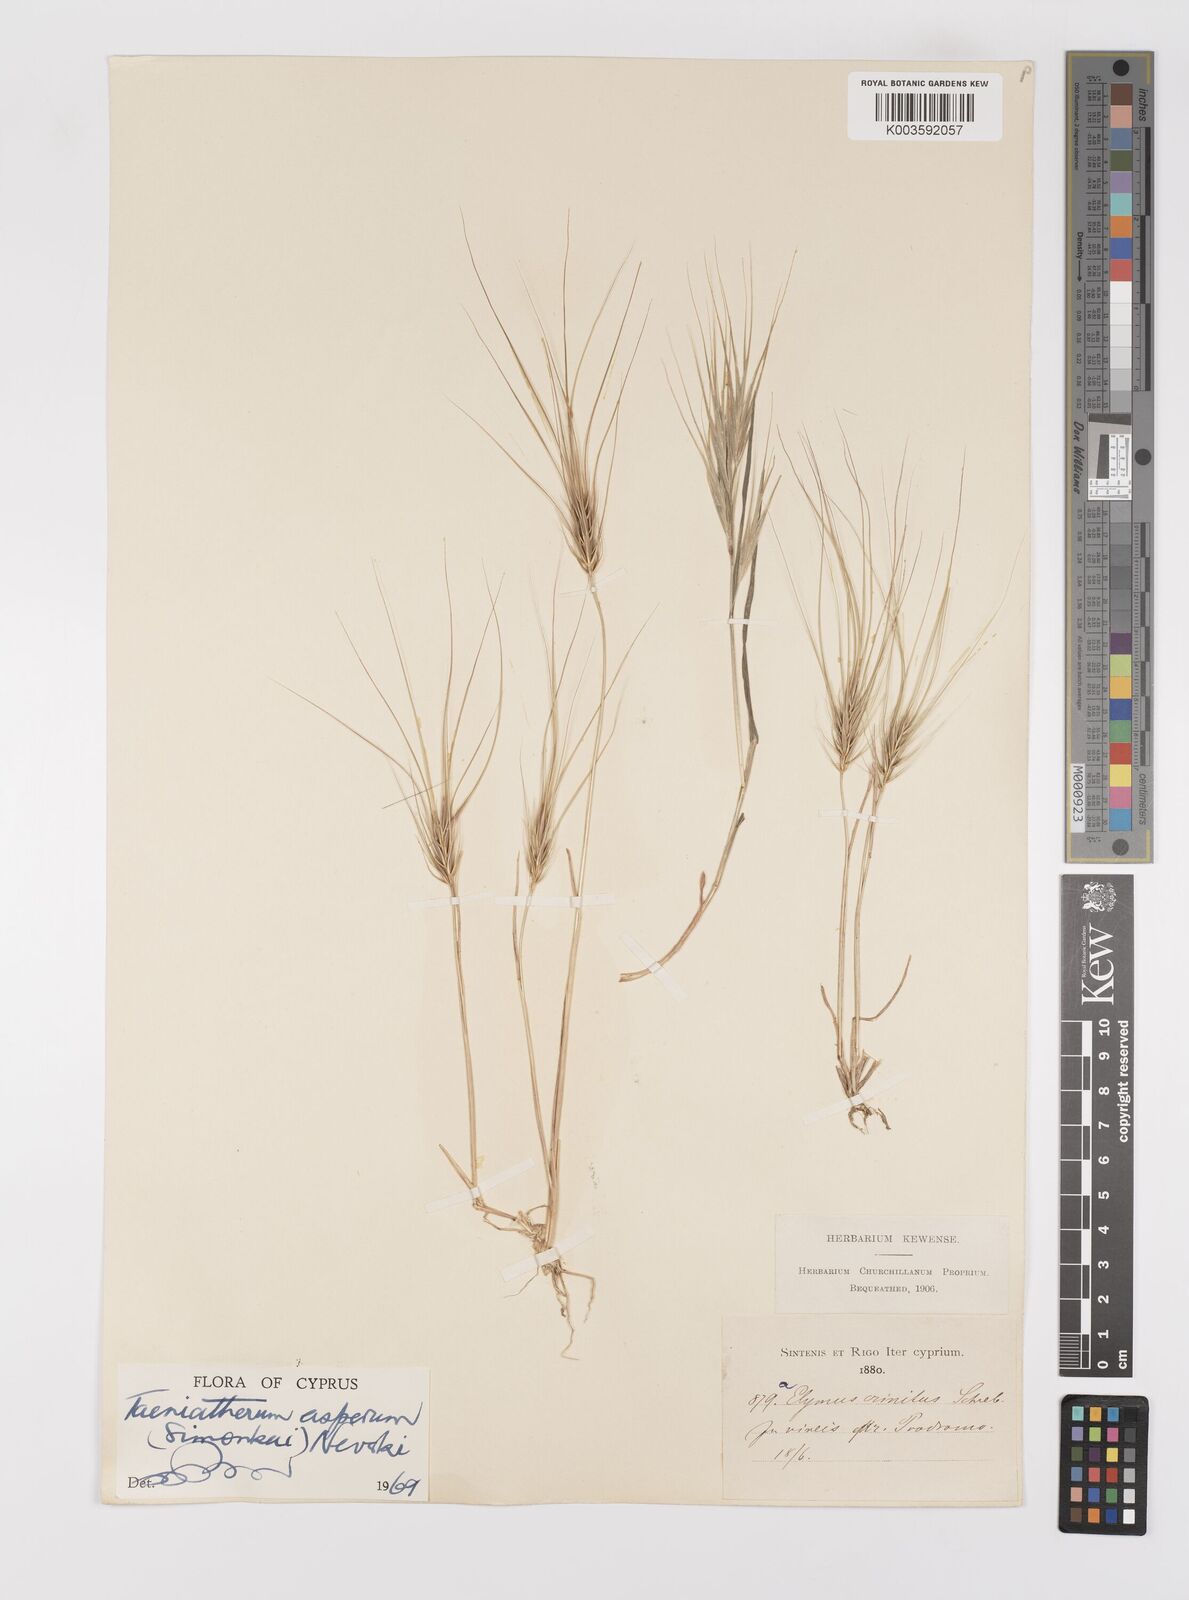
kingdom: Plantae
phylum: Tracheophyta
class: Liliopsida
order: Poales
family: Poaceae
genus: Taeniatherum
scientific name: Taeniatherum caput-medusae
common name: Medusahead
